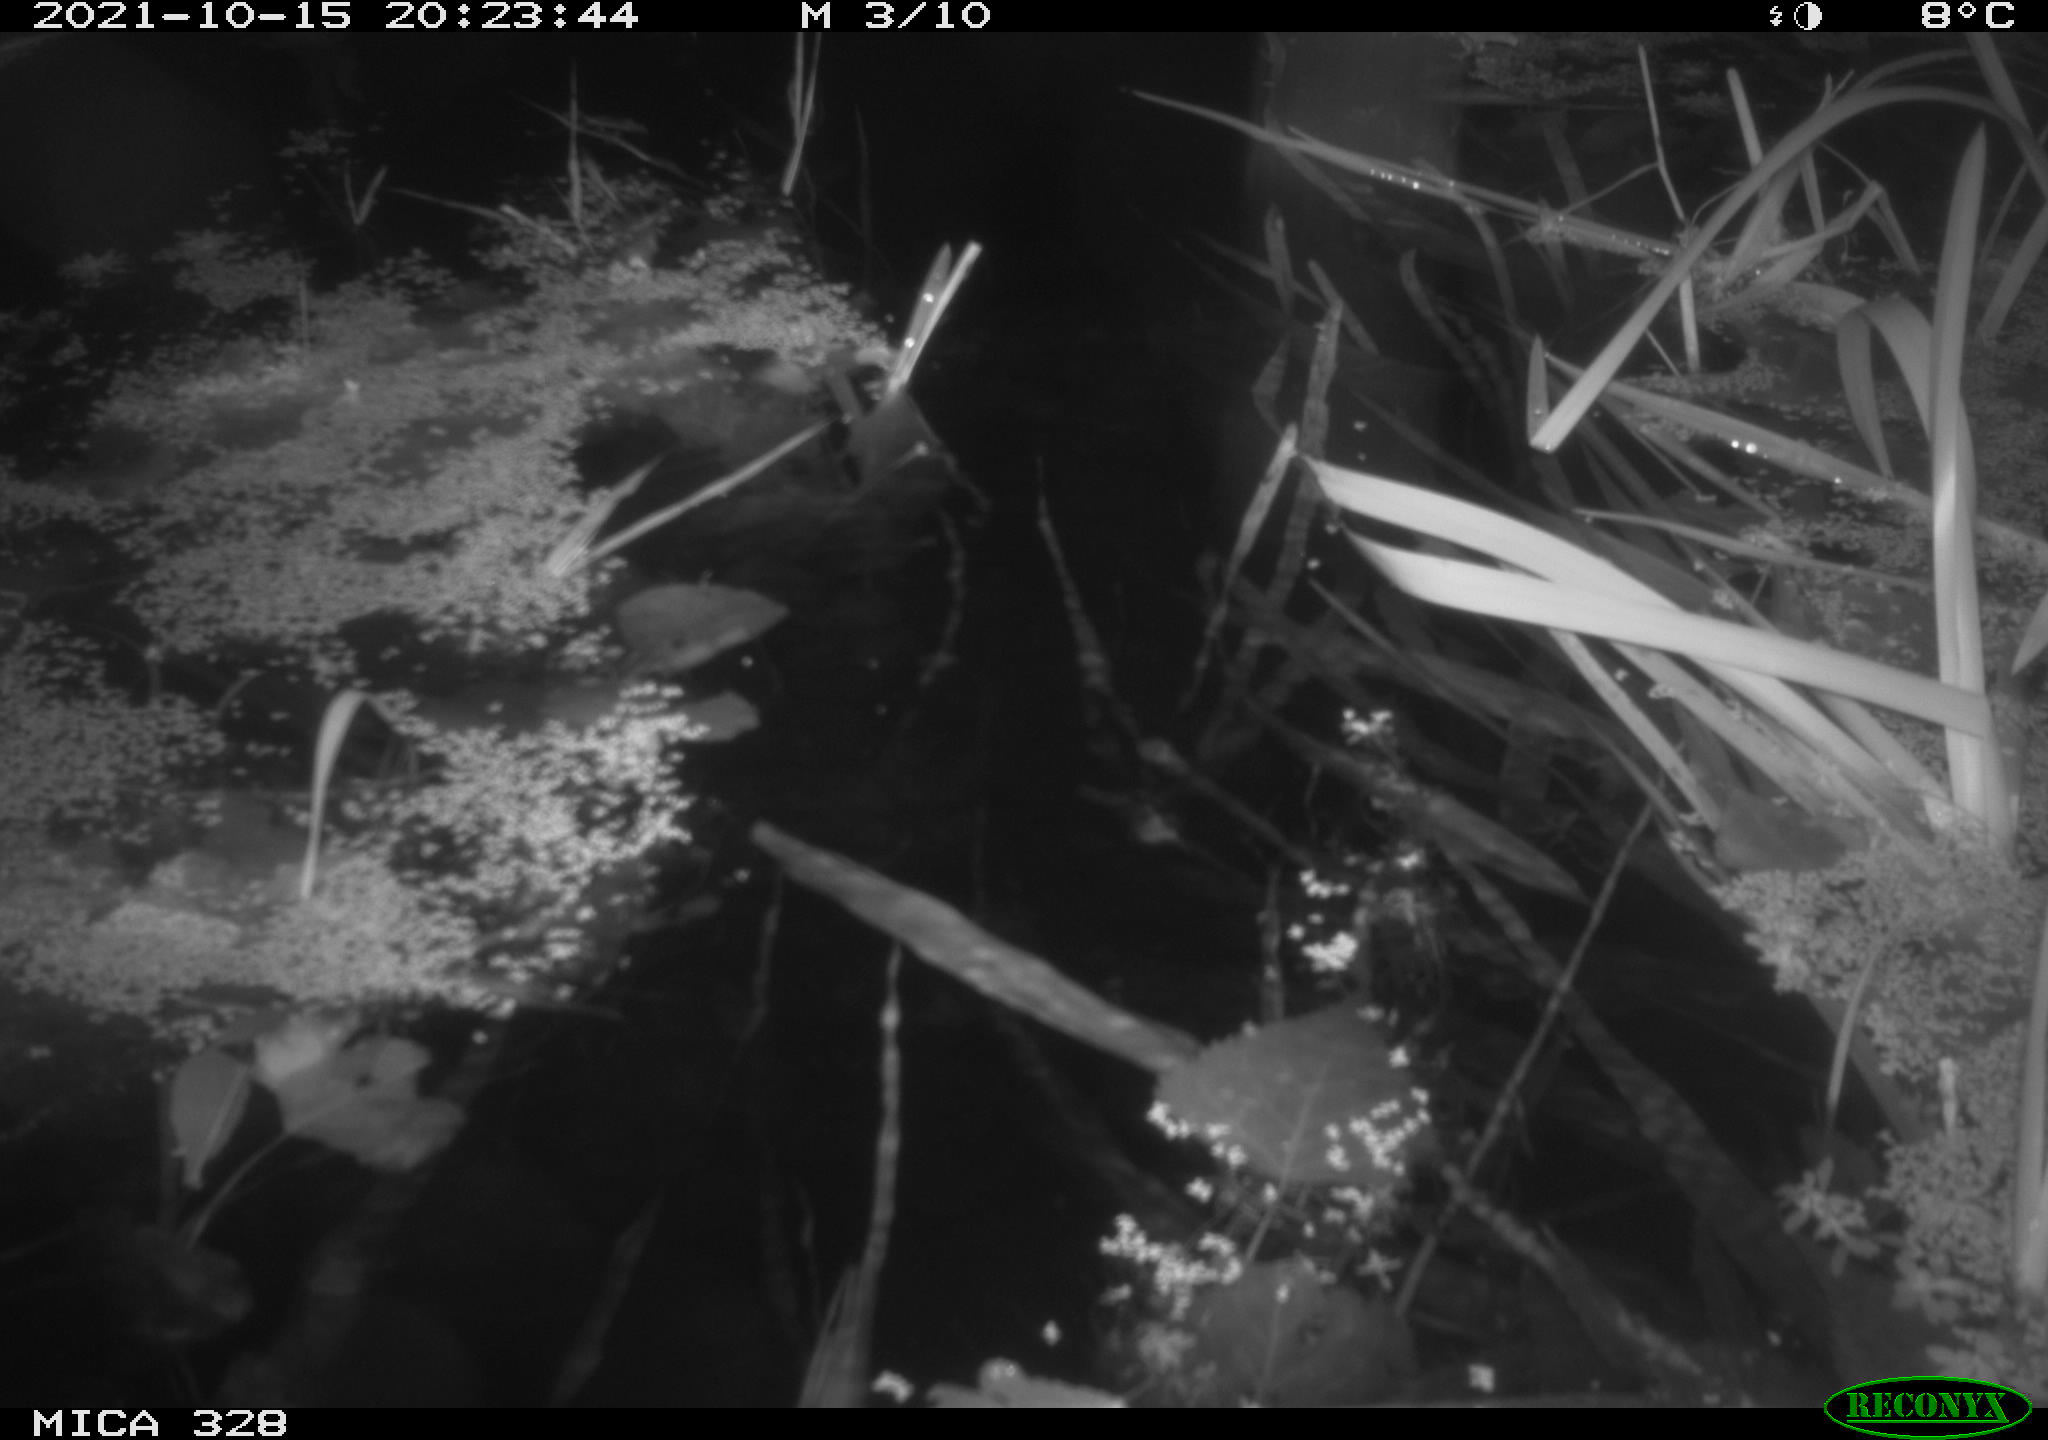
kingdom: Animalia
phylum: Chordata
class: Mammalia
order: Rodentia
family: Cricetidae
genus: Ondatra
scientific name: Ondatra zibethicus
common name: Muskrat
